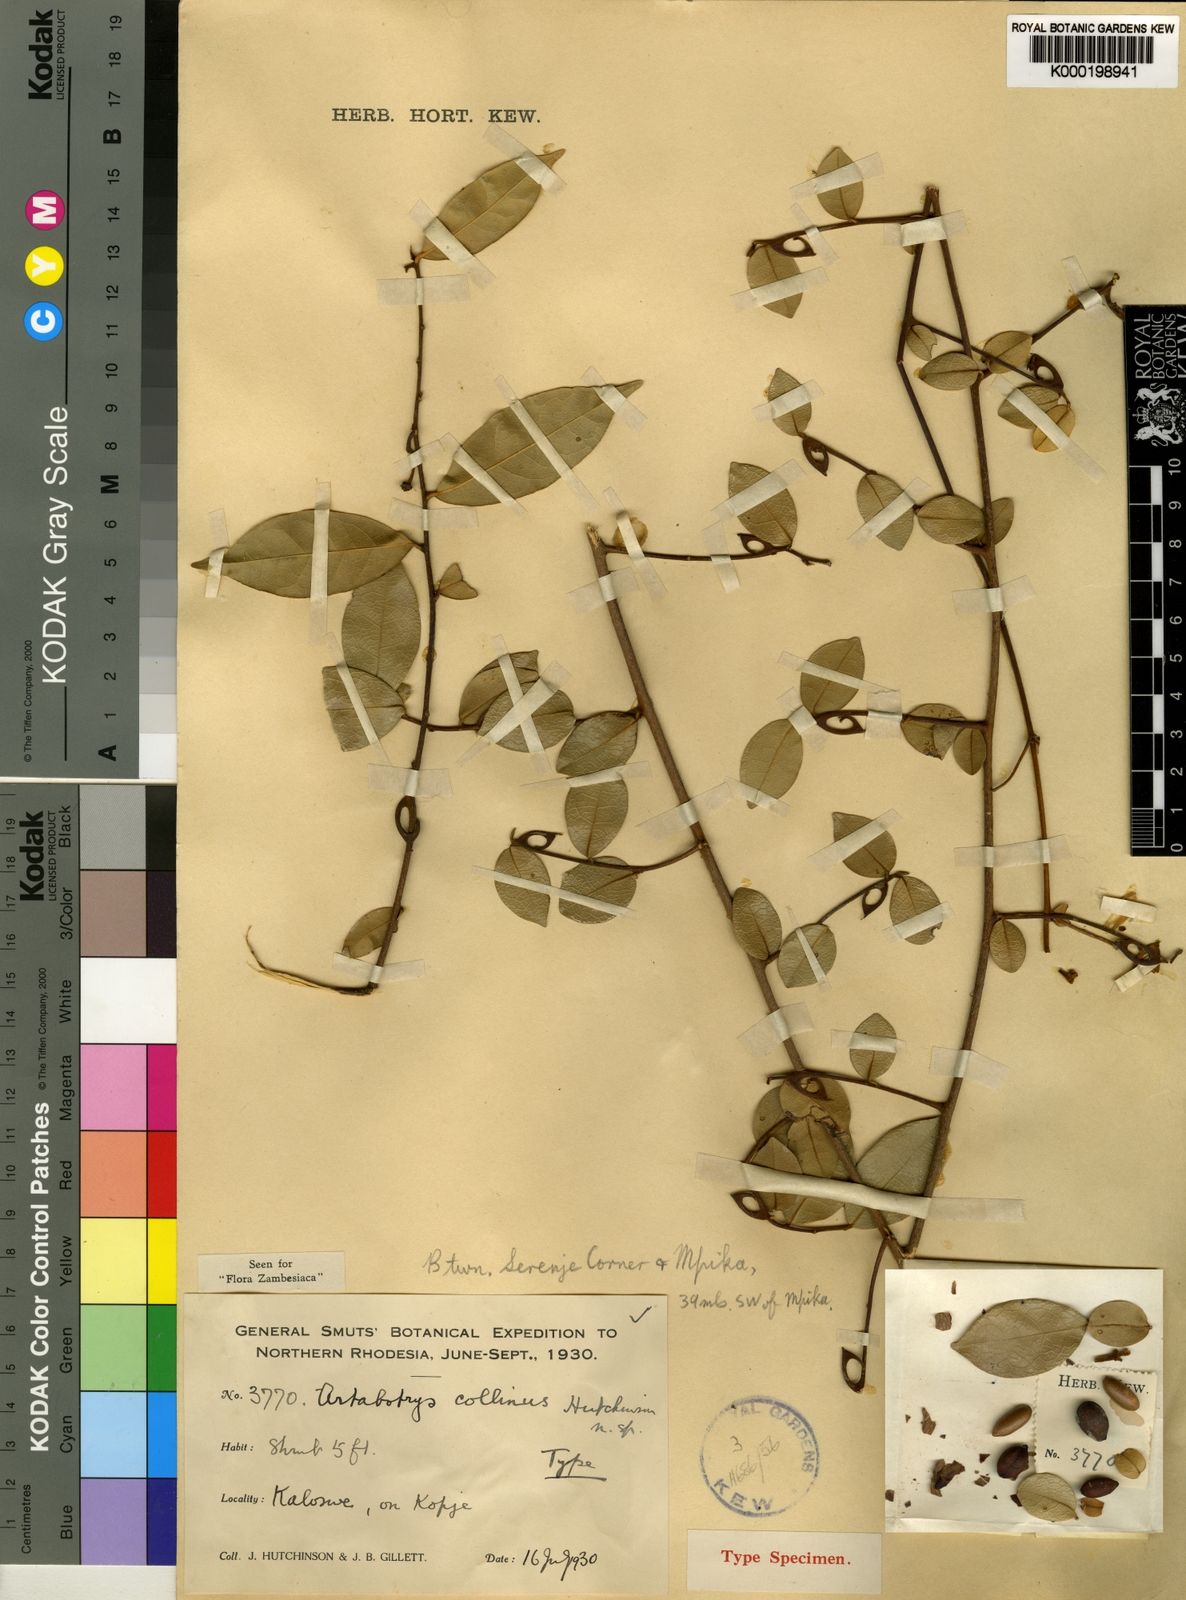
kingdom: Plantae
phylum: Tracheophyta
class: Magnoliopsida
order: Magnoliales
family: Annonaceae
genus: Artabotrys
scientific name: Artabotrys collinus
